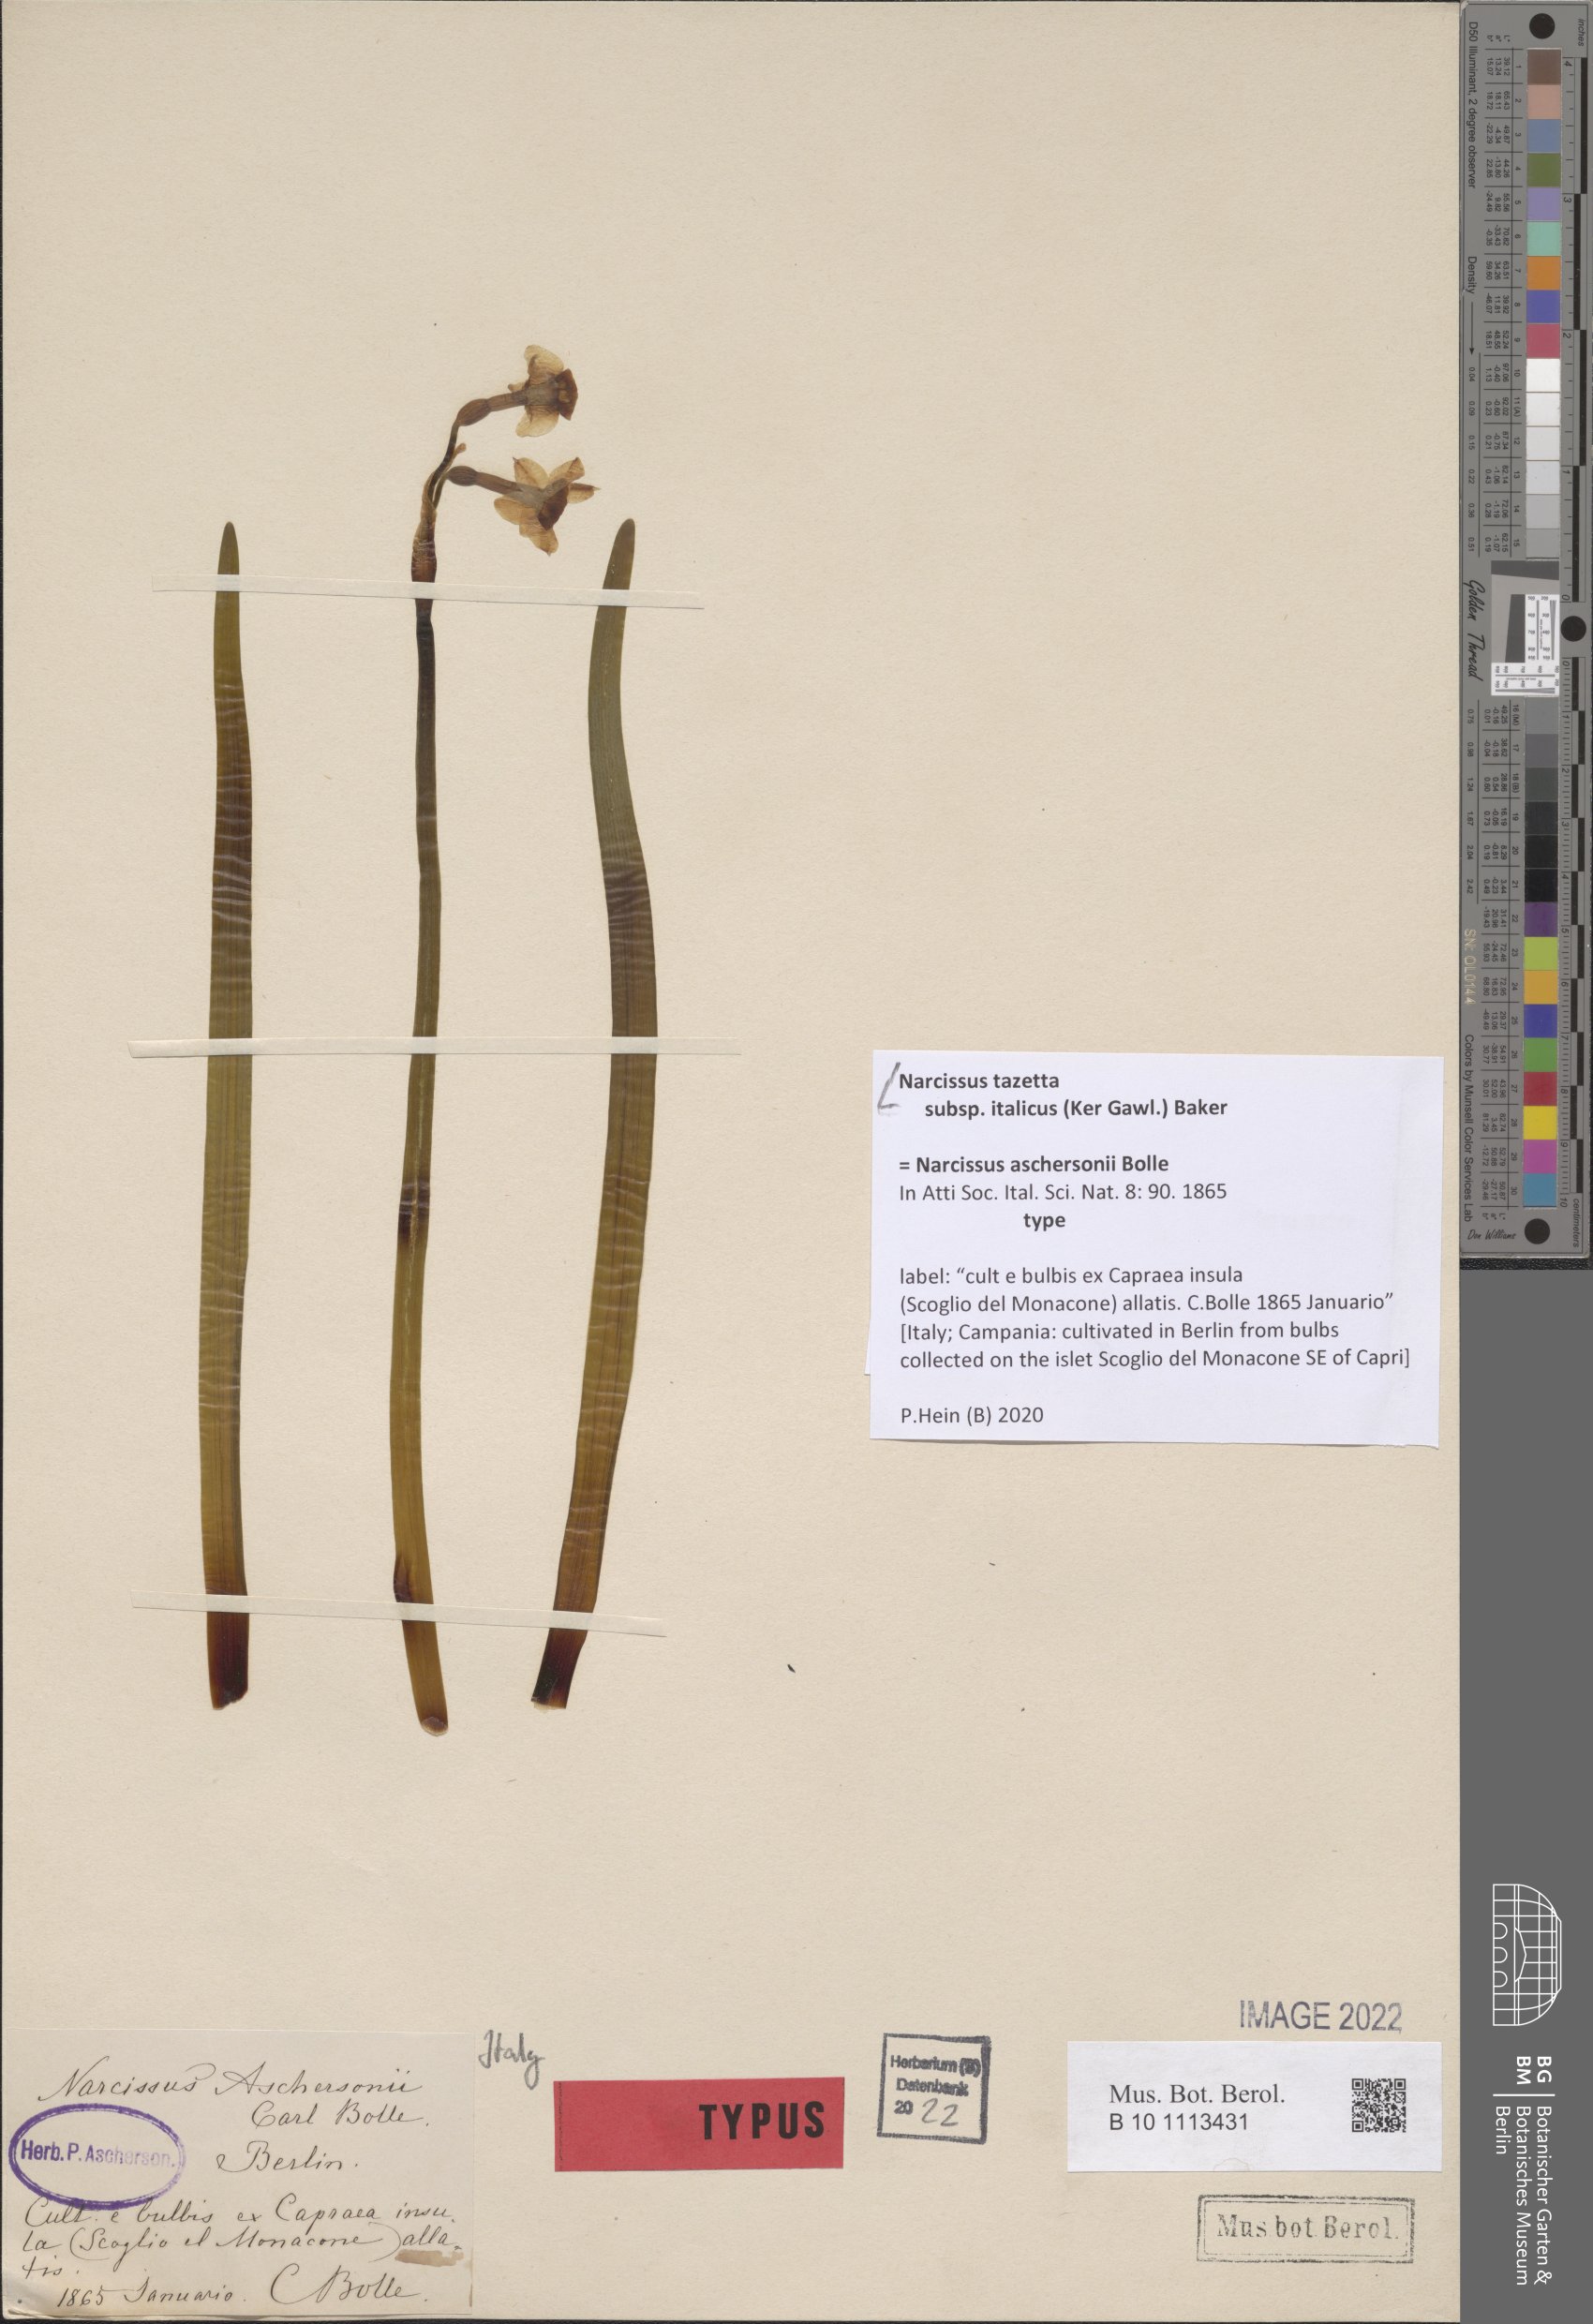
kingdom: Plantae
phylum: Tracheophyta
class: Liliopsida
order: Asparagales
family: Amaryllidaceae
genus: Narcissus
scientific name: Narcissus tazetta
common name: Bunch-flowered daffodil
